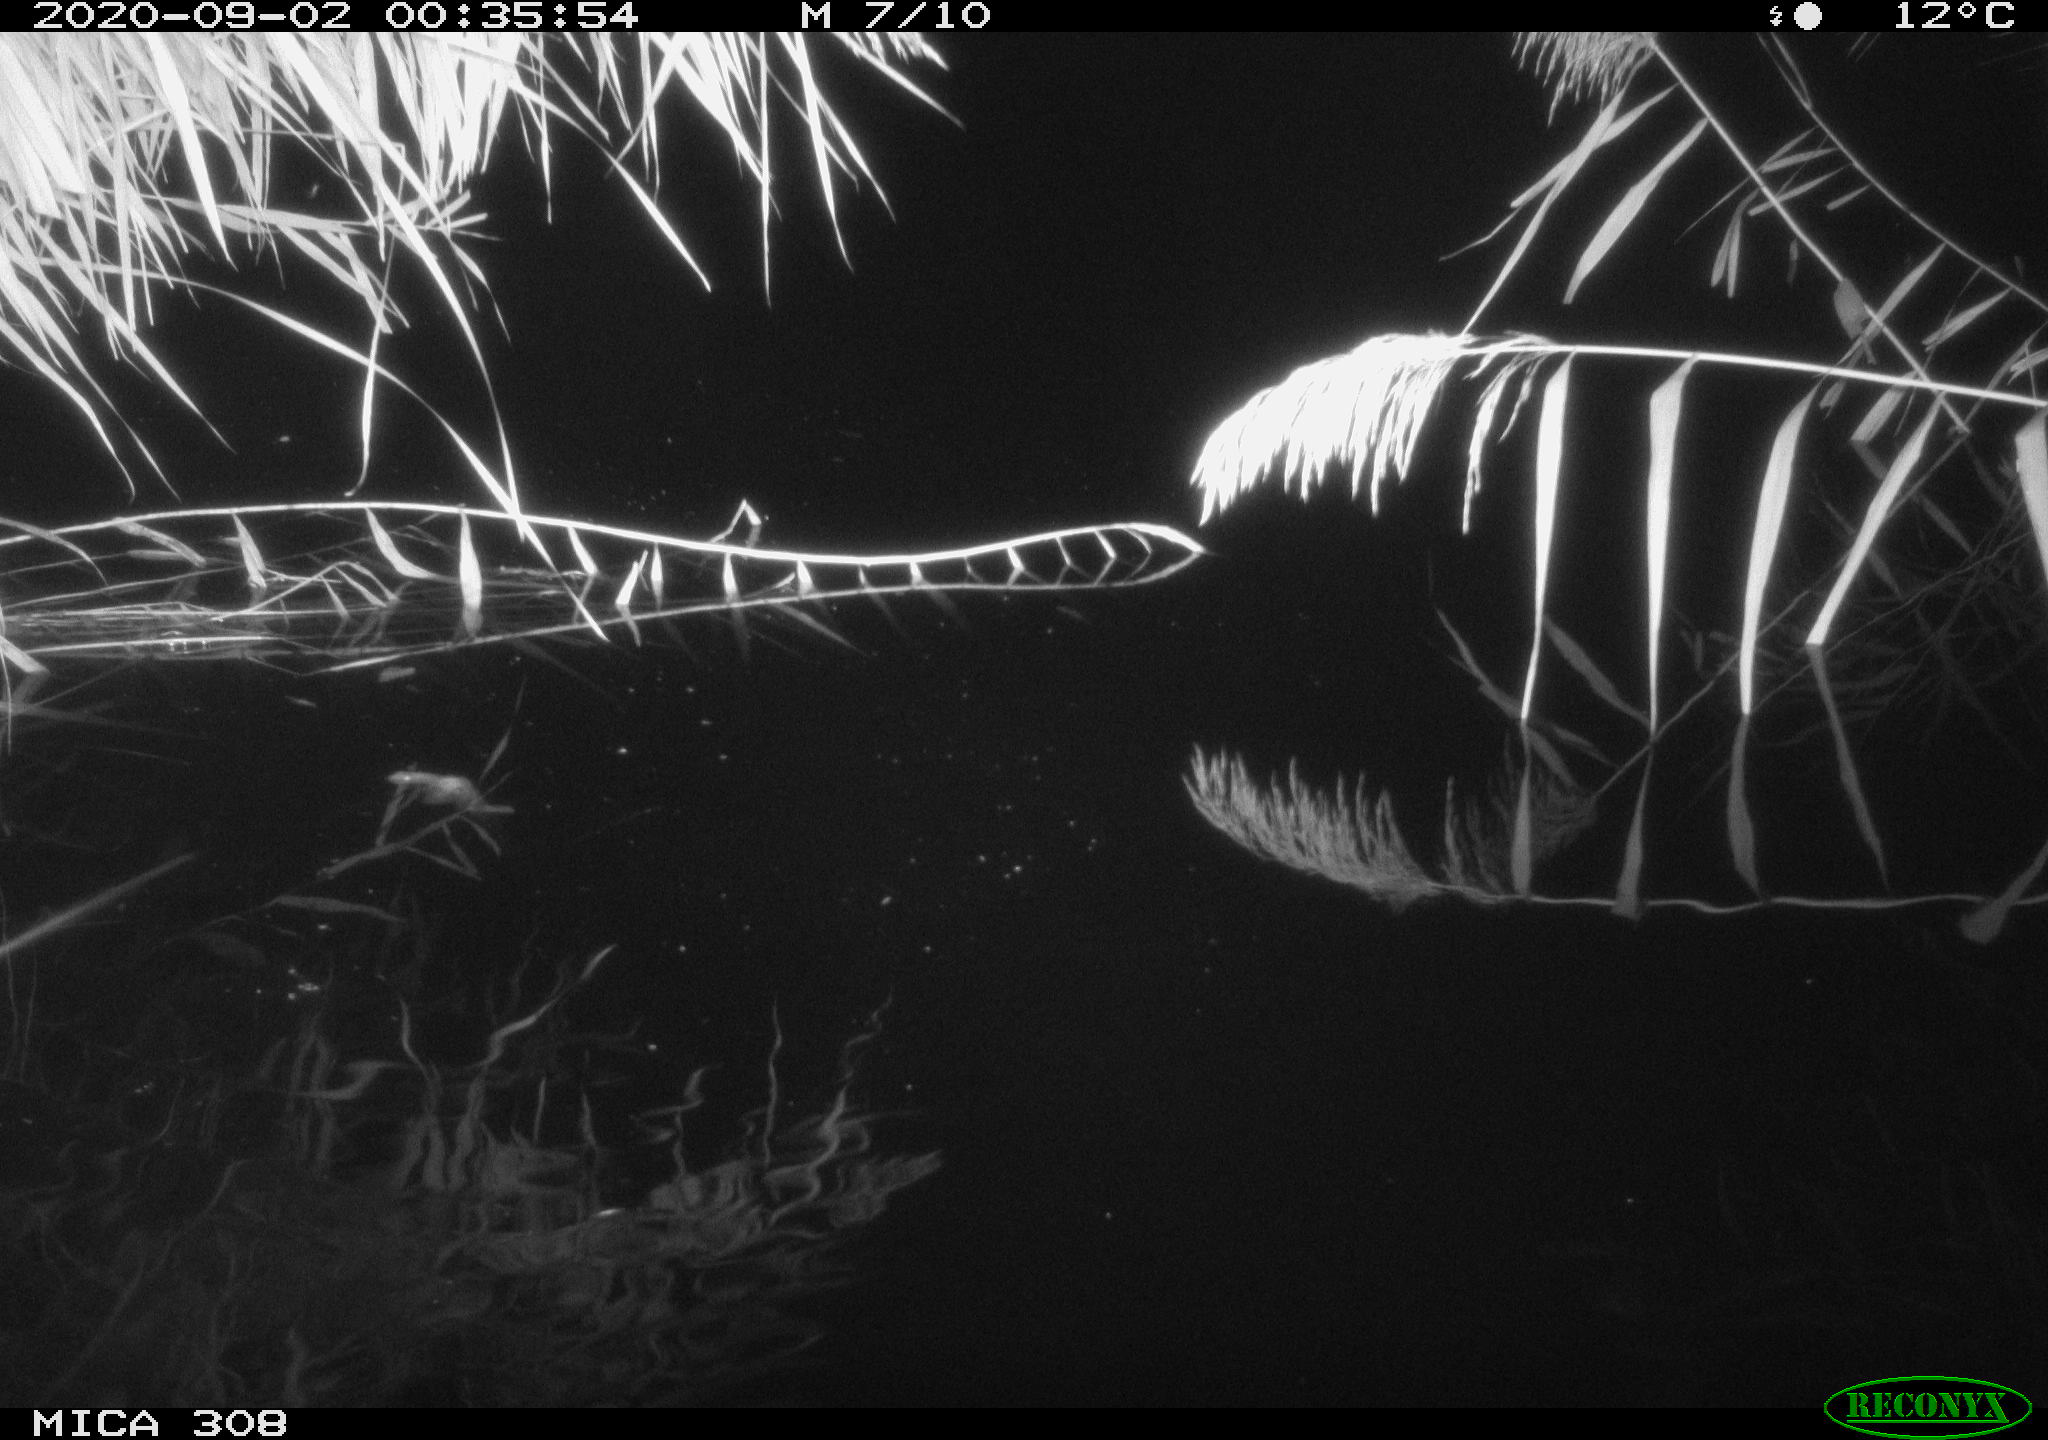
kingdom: Animalia
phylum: Chordata
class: Mammalia
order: Rodentia
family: Muridae
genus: Rattus
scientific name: Rattus norvegicus
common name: Brown rat
